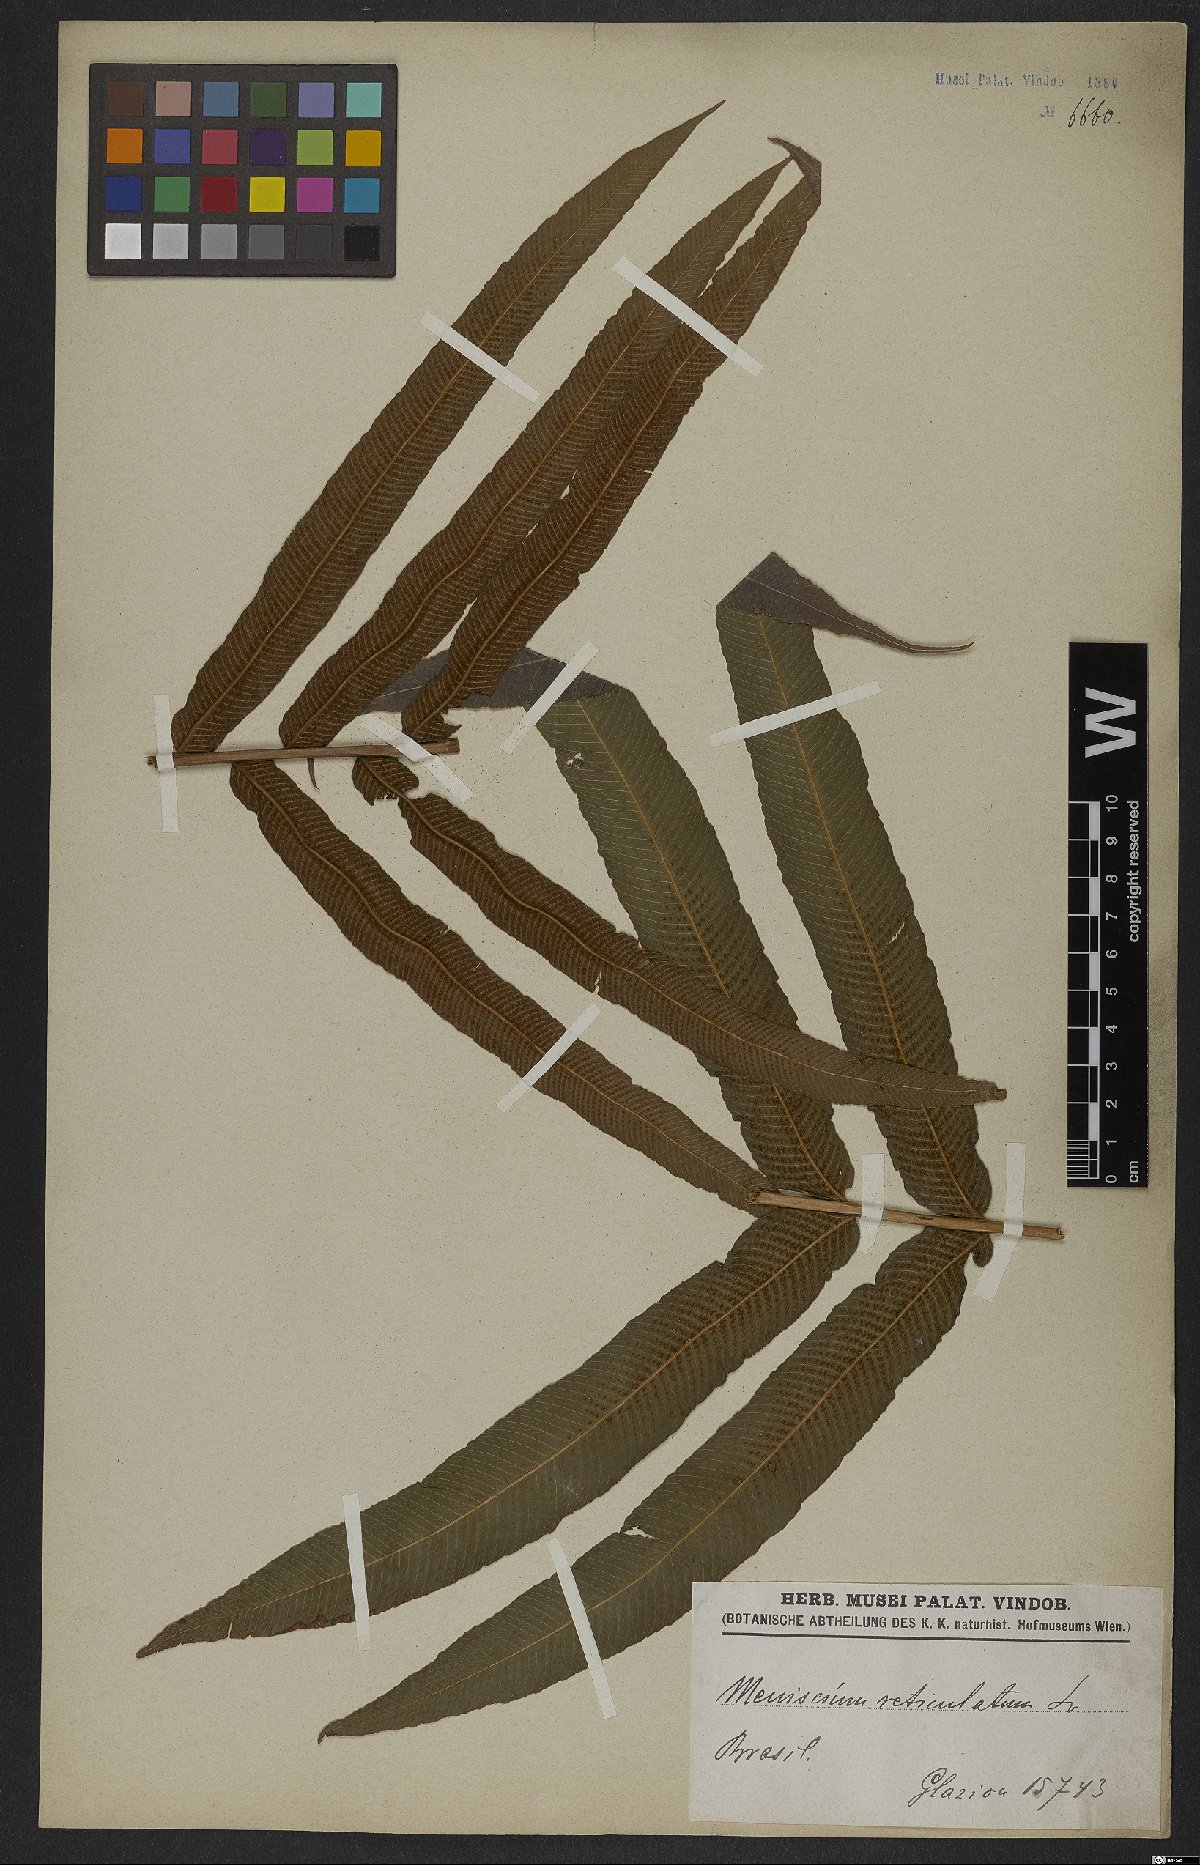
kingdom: Plantae
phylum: Tracheophyta
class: Polypodiopsida
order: Polypodiales
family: Thelypteridaceae
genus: Meniscium
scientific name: Meniscium reticulatum
